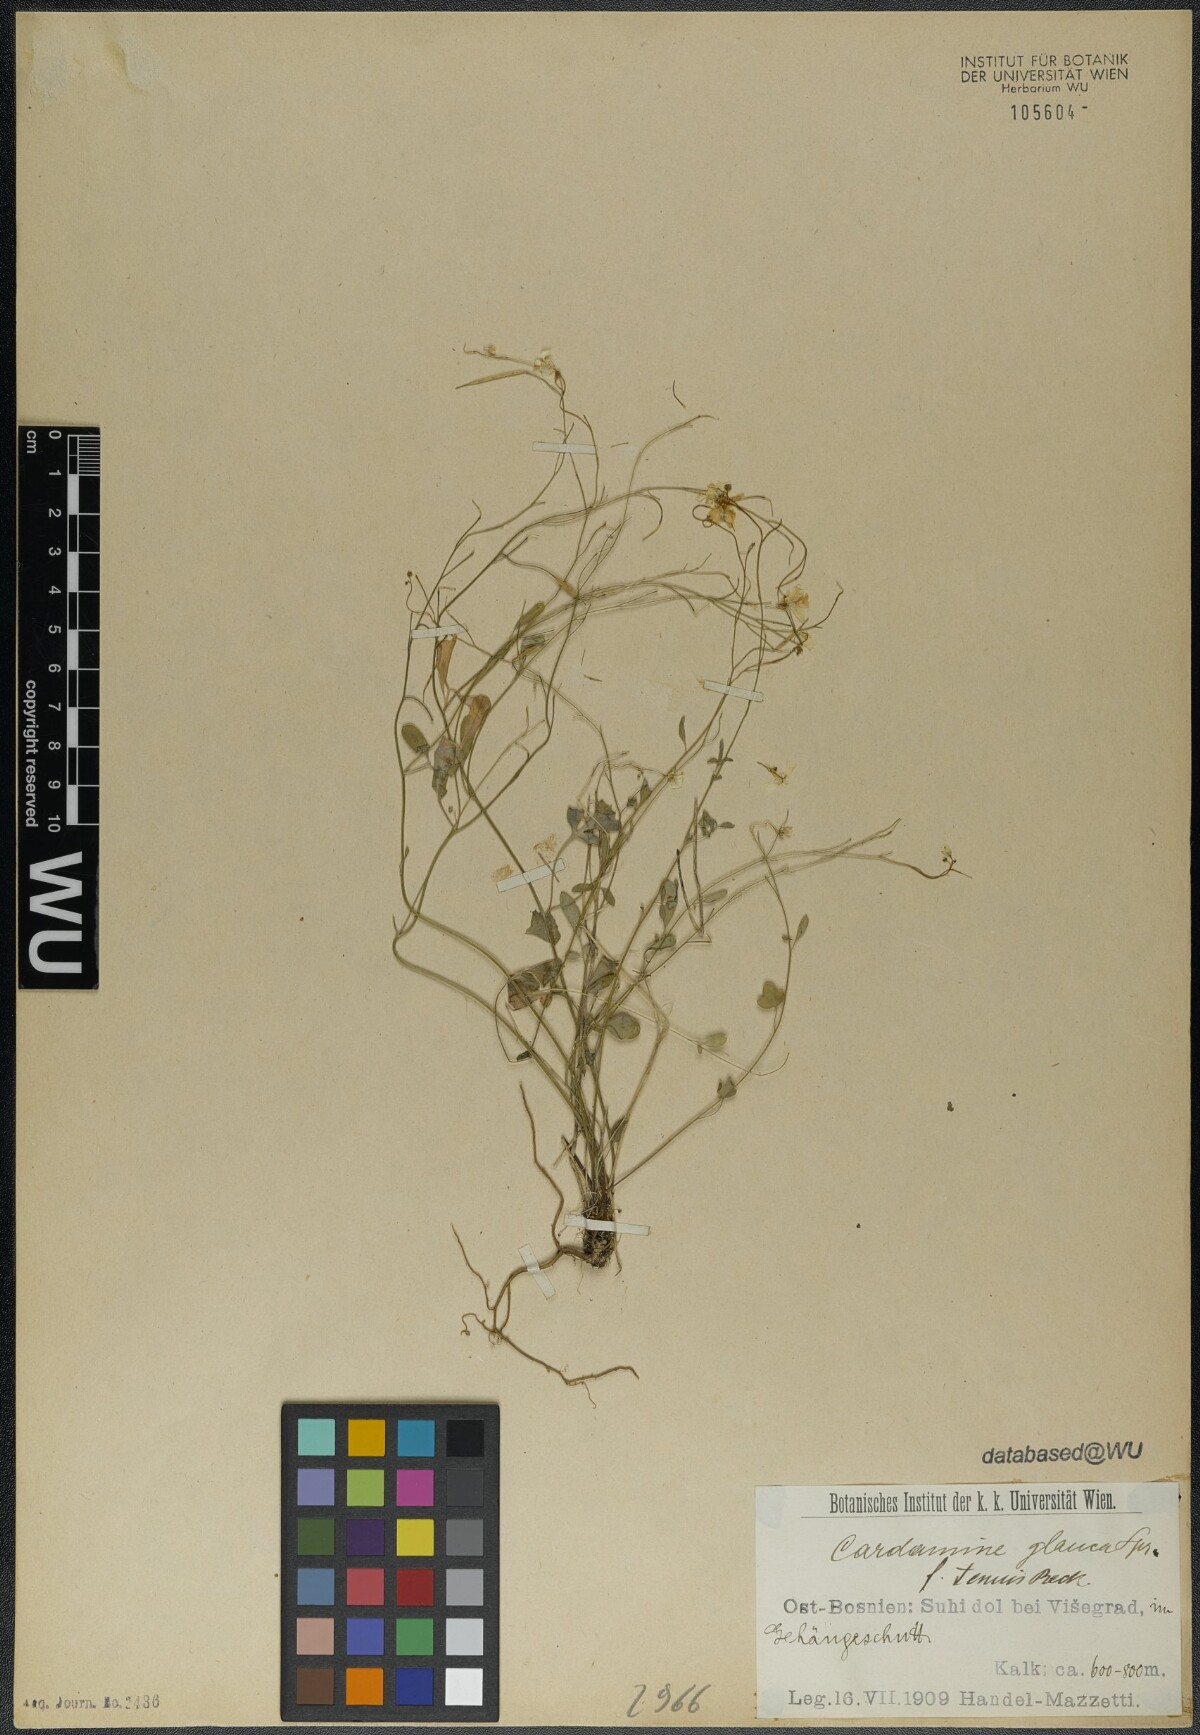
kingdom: Plantae
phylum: Tracheophyta
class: Magnoliopsida
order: Brassicales
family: Brassicaceae
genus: Cardamine
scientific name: Cardamine glauca
